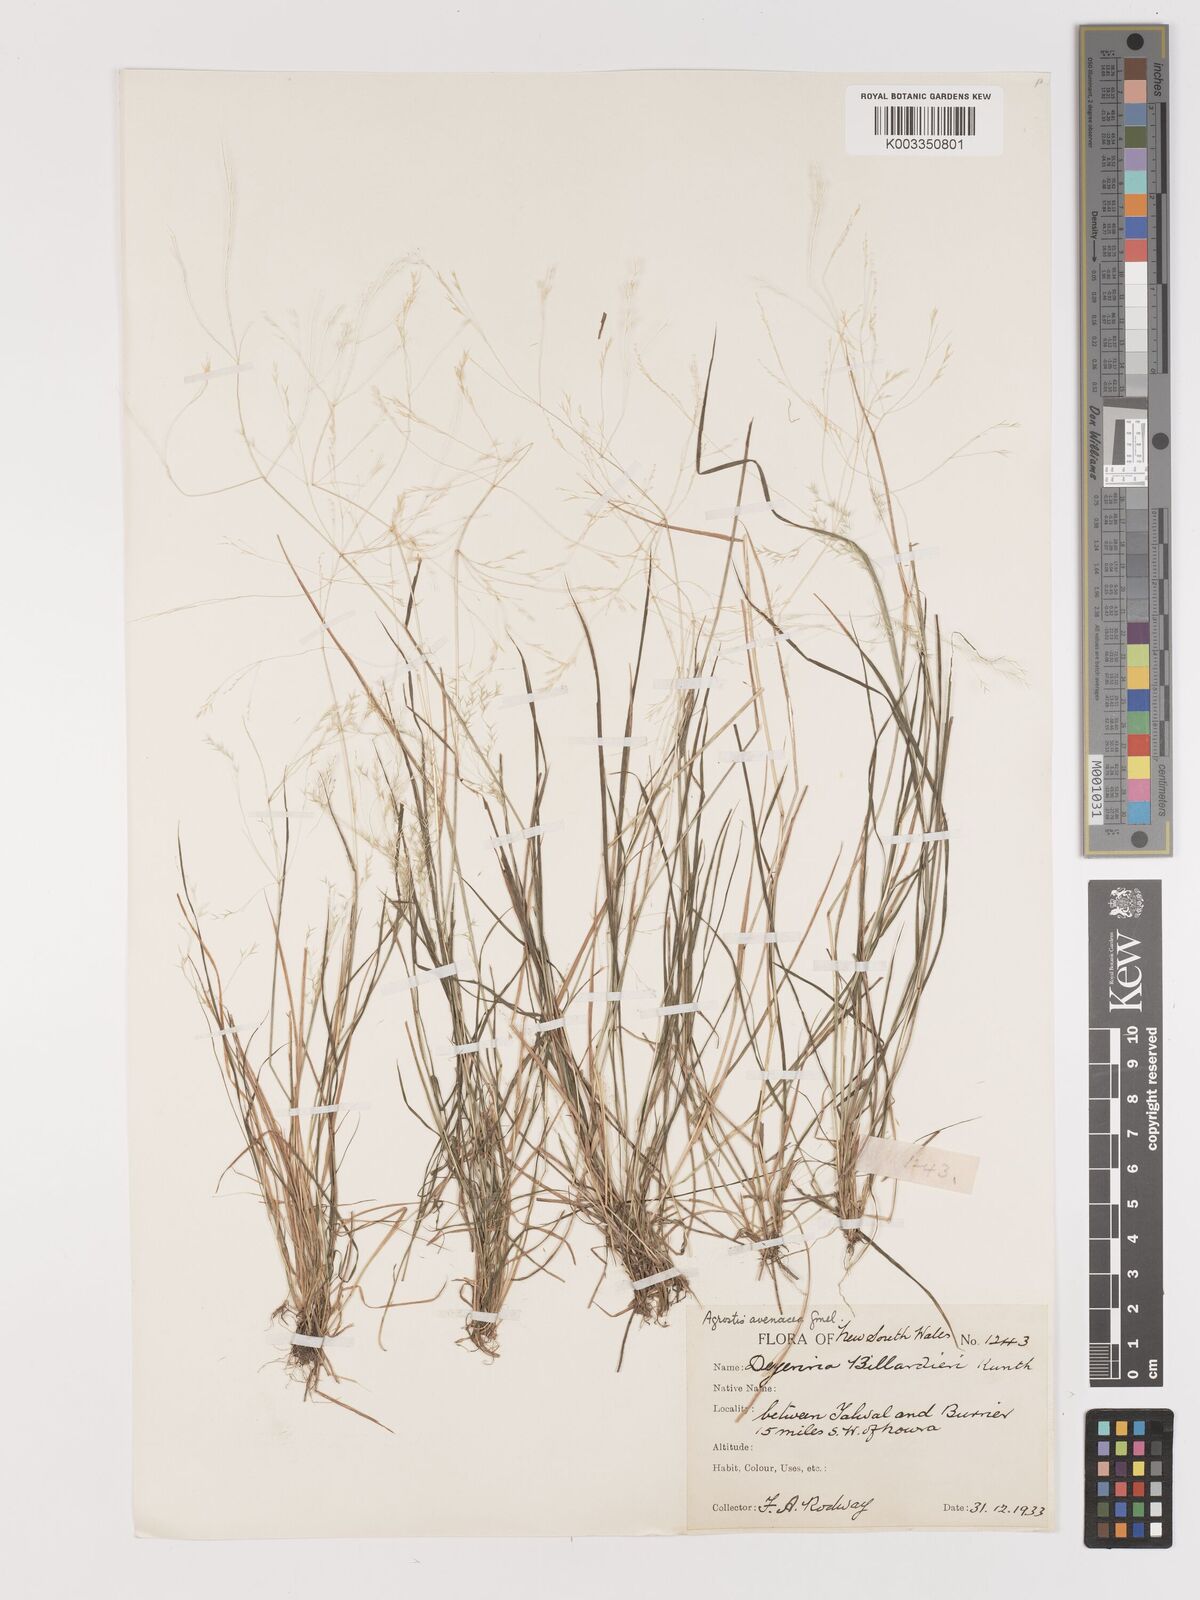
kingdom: Plantae
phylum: Tracheophyta
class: Liliopsida
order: Poales
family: Poaceae
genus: Lachnagrostis
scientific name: Lachnagrostis filiformis
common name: Bentgrass
